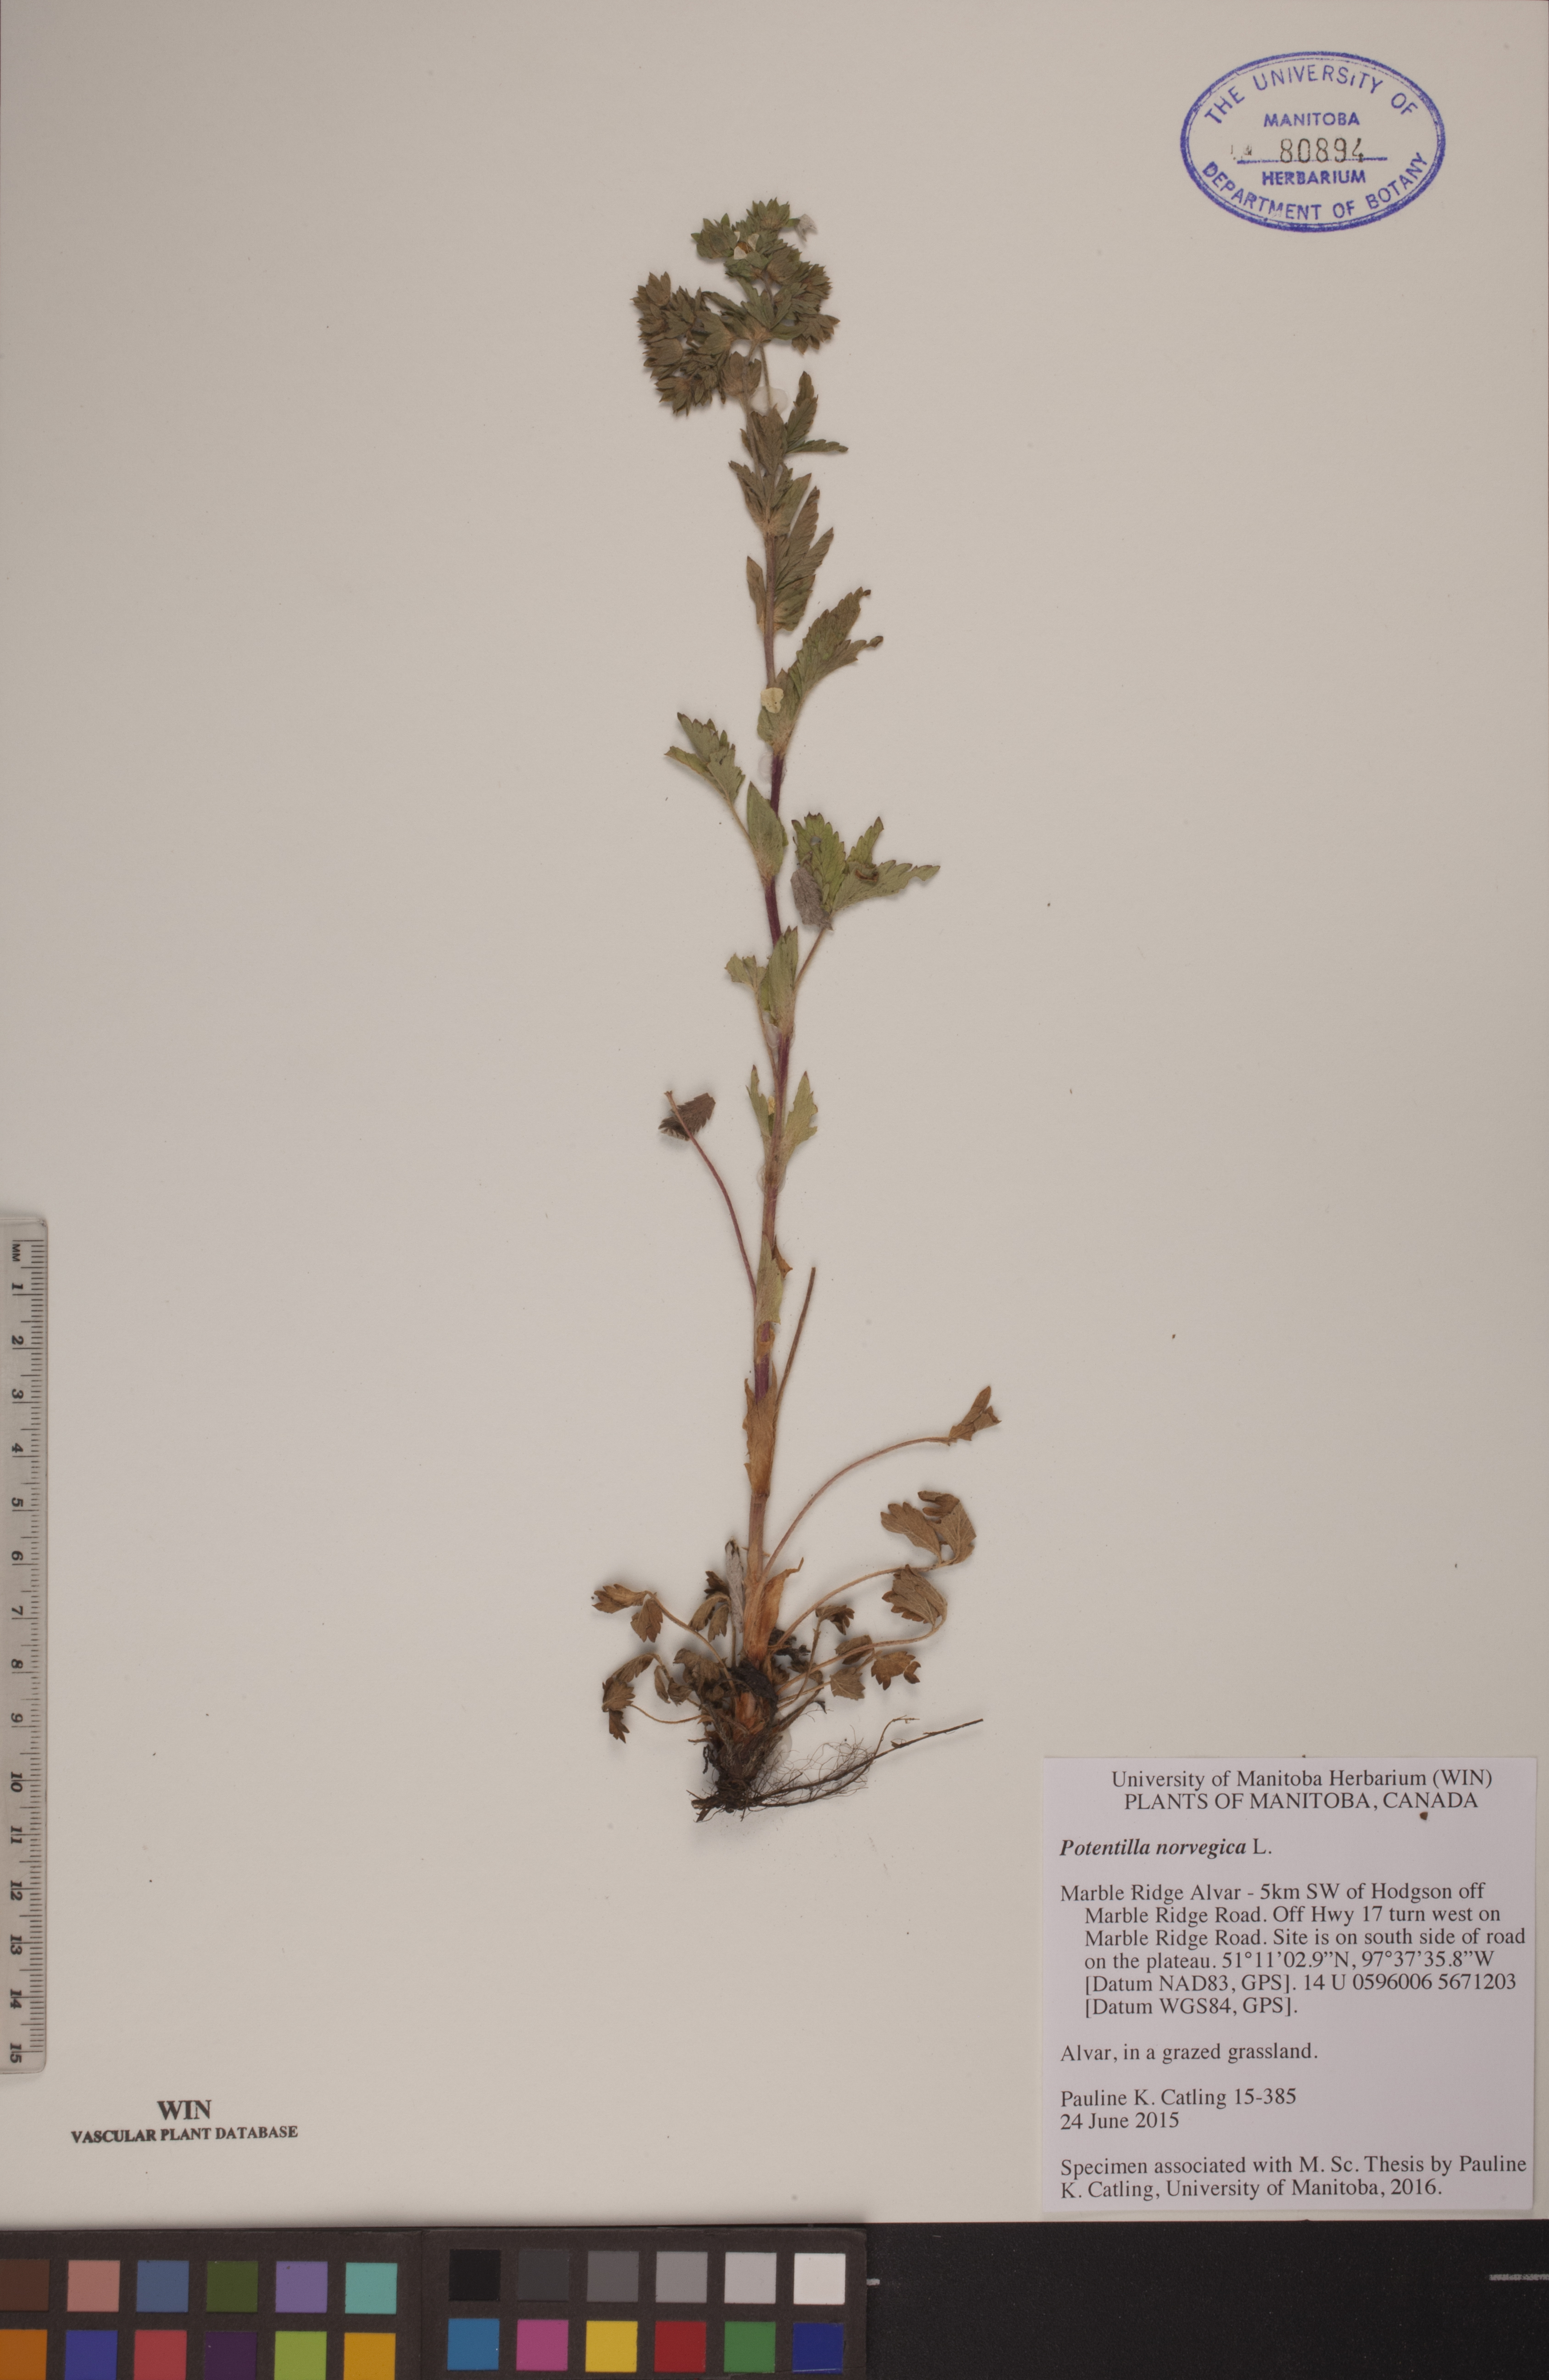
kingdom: Plantae
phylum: Tracheophyta
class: Magnoliopsida
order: Rosales
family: Rosaceae
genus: Potentilla
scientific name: Potentilla norvegica
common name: Ternate-leaved cinquefoil
